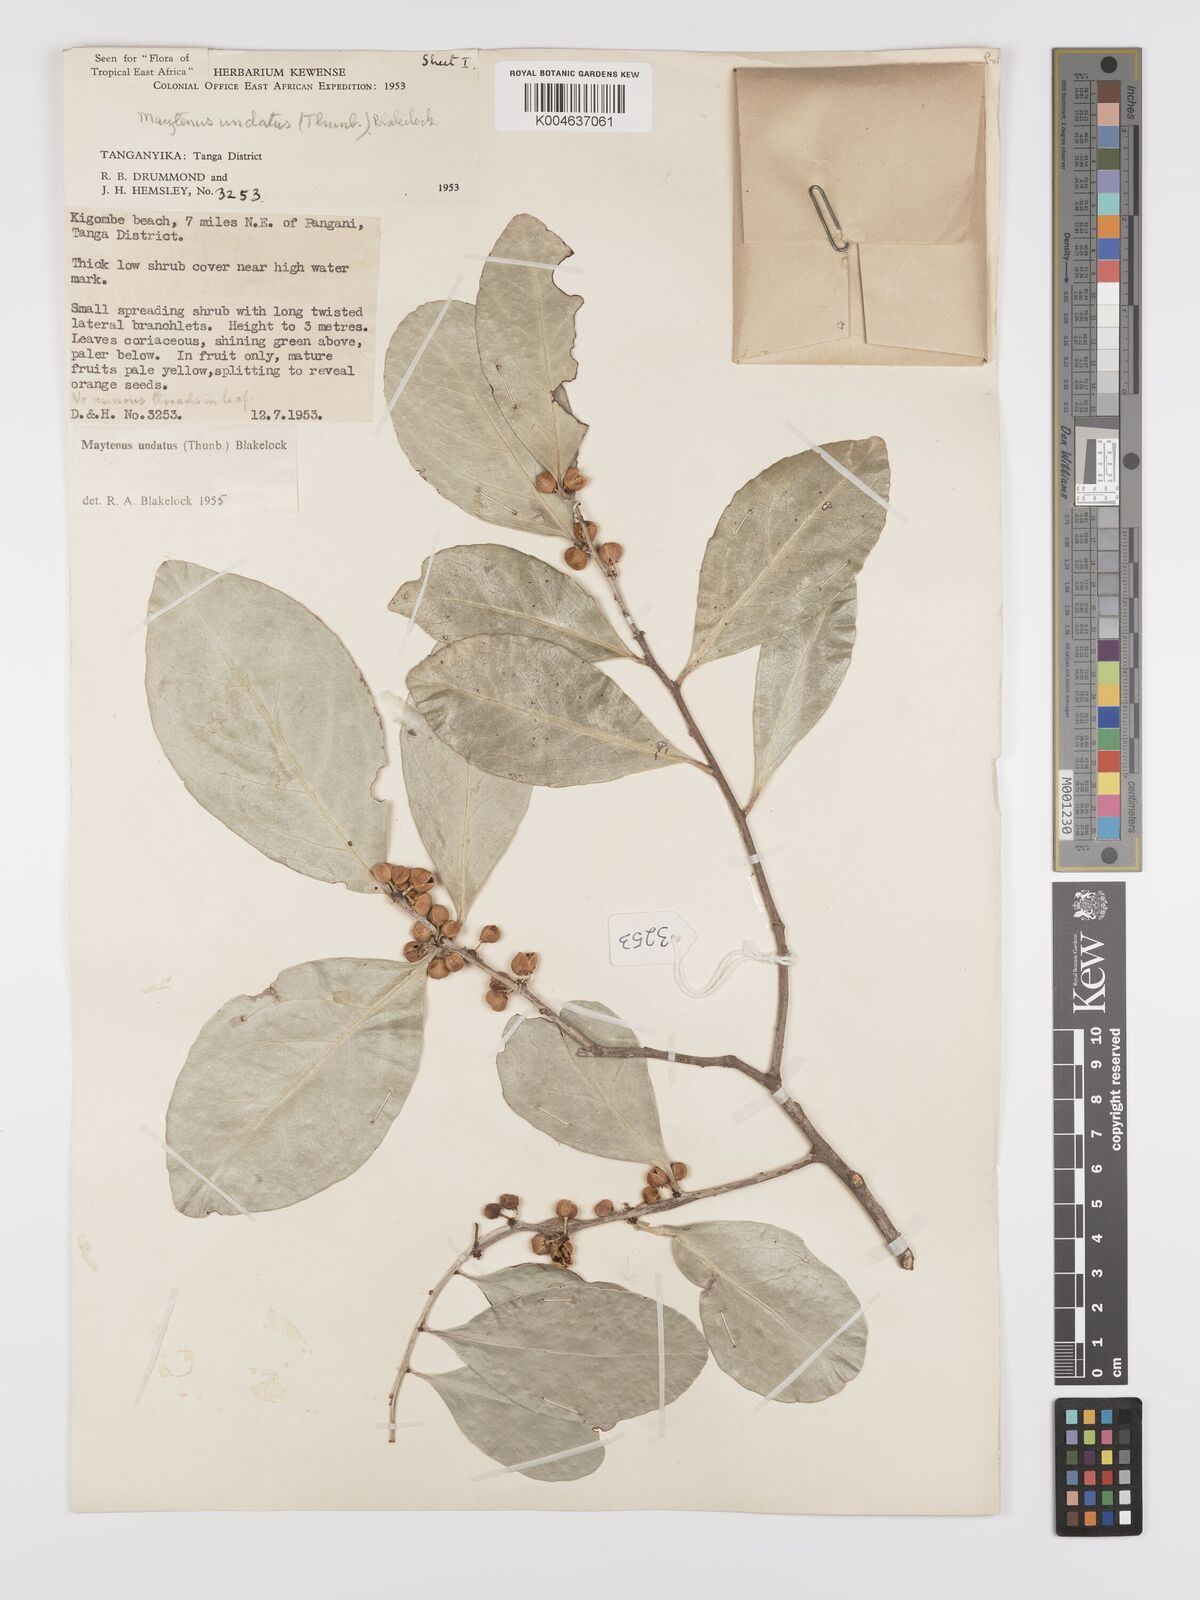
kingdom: Plantae
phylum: Tracheophyta
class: Magnoliopsida
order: Celastrales
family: Celastraceae
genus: Gymnosporia
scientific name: Gymnosporia undata
